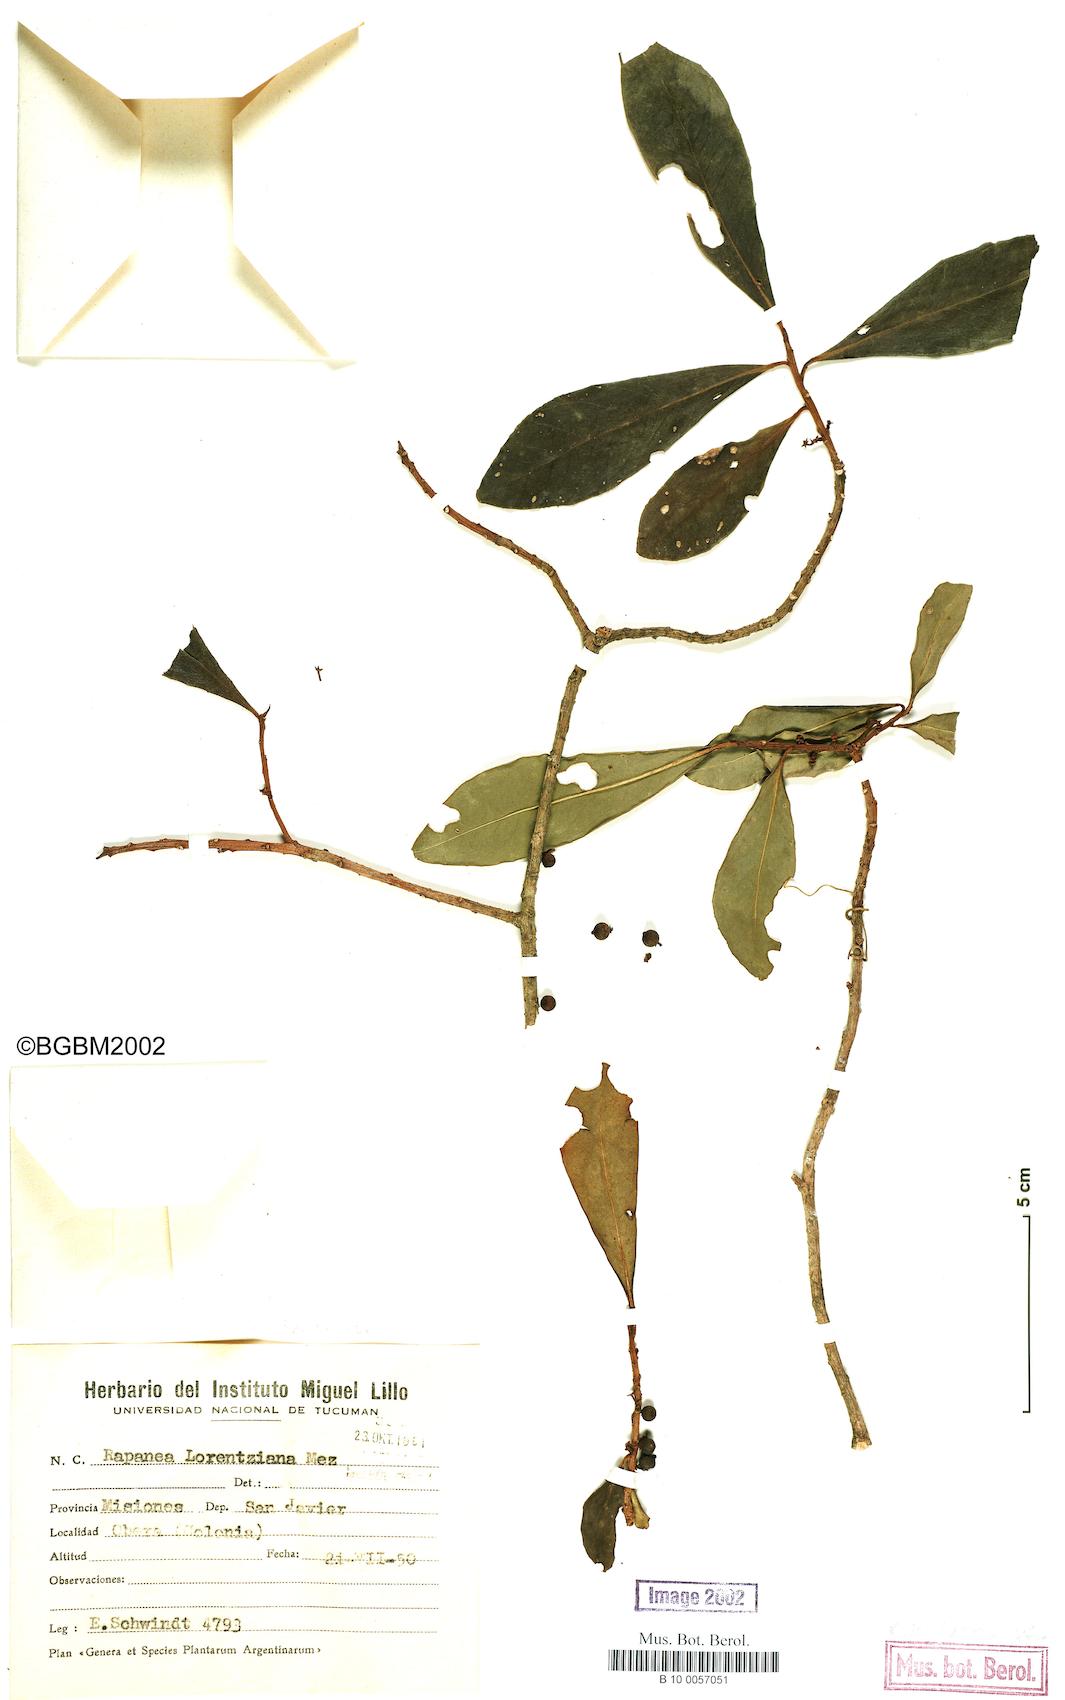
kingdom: Plantae
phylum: Tracheophyta
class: Magnoliopsida
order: Ericales
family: Primulaceae
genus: Myrsine
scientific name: Myrsine lorentziana
